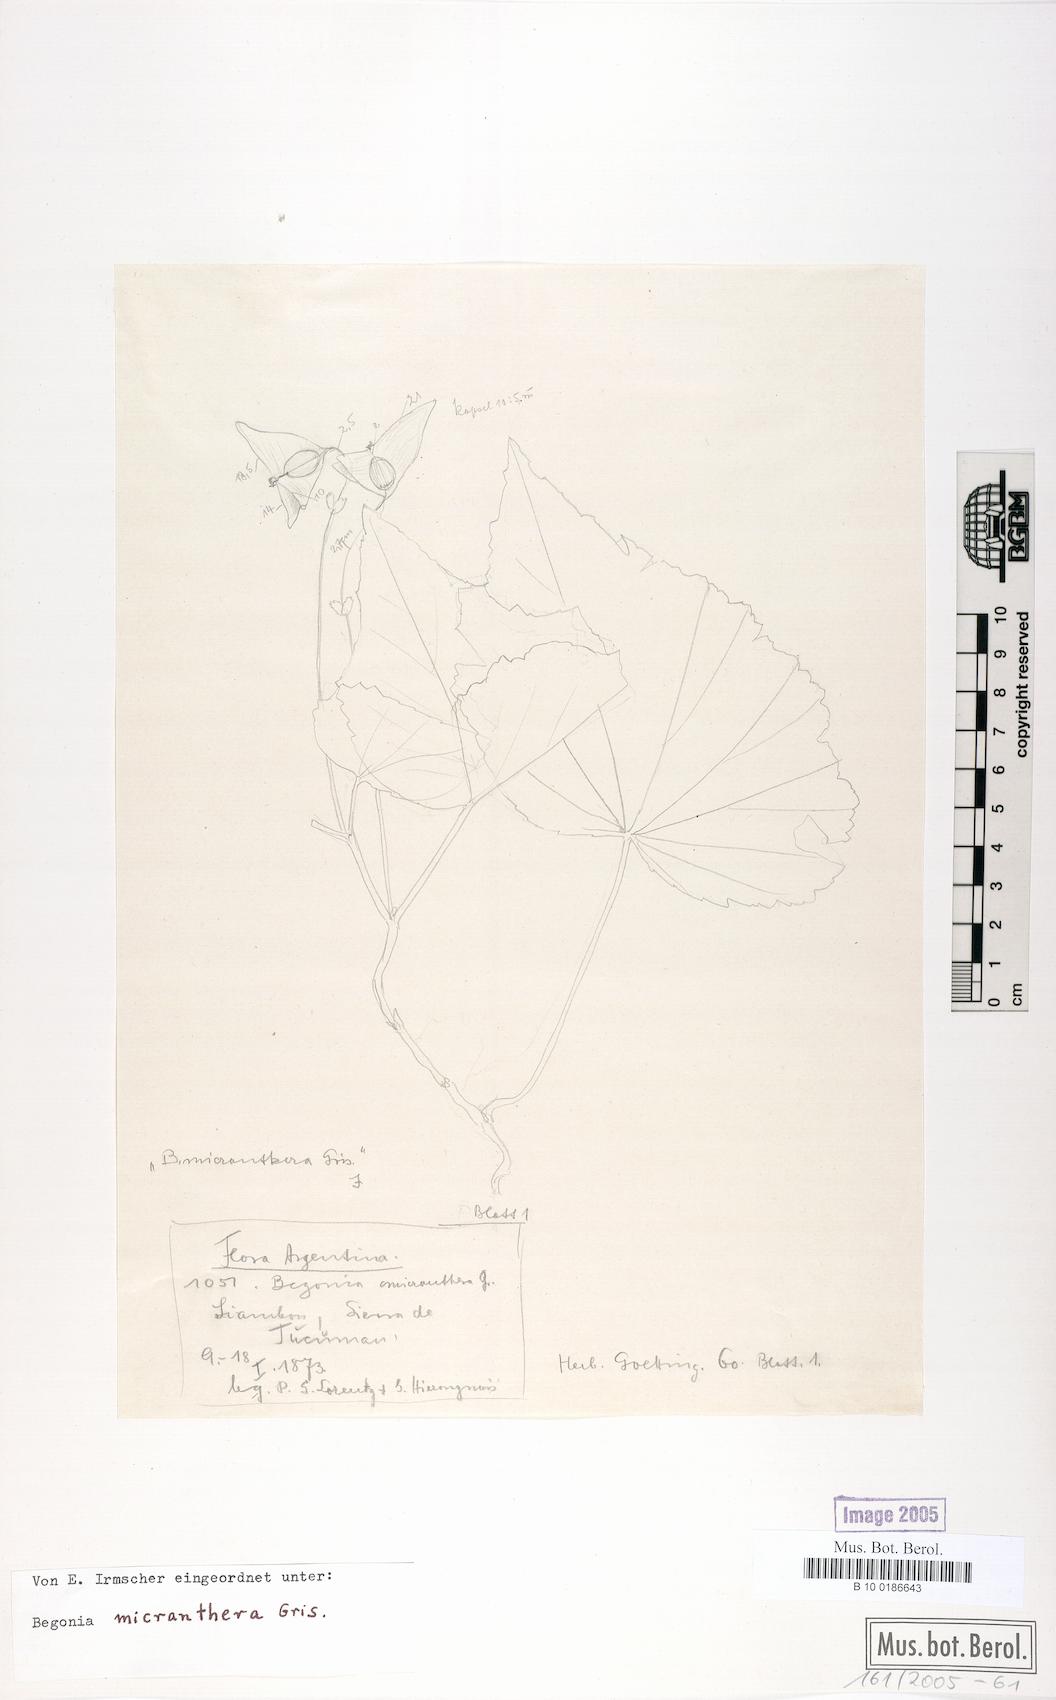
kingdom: Plantae
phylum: Tracheophyta
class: Magnoliopsida
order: Cucurbitales
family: Begoniaceae
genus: Begonia
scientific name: Begonia micranthera
